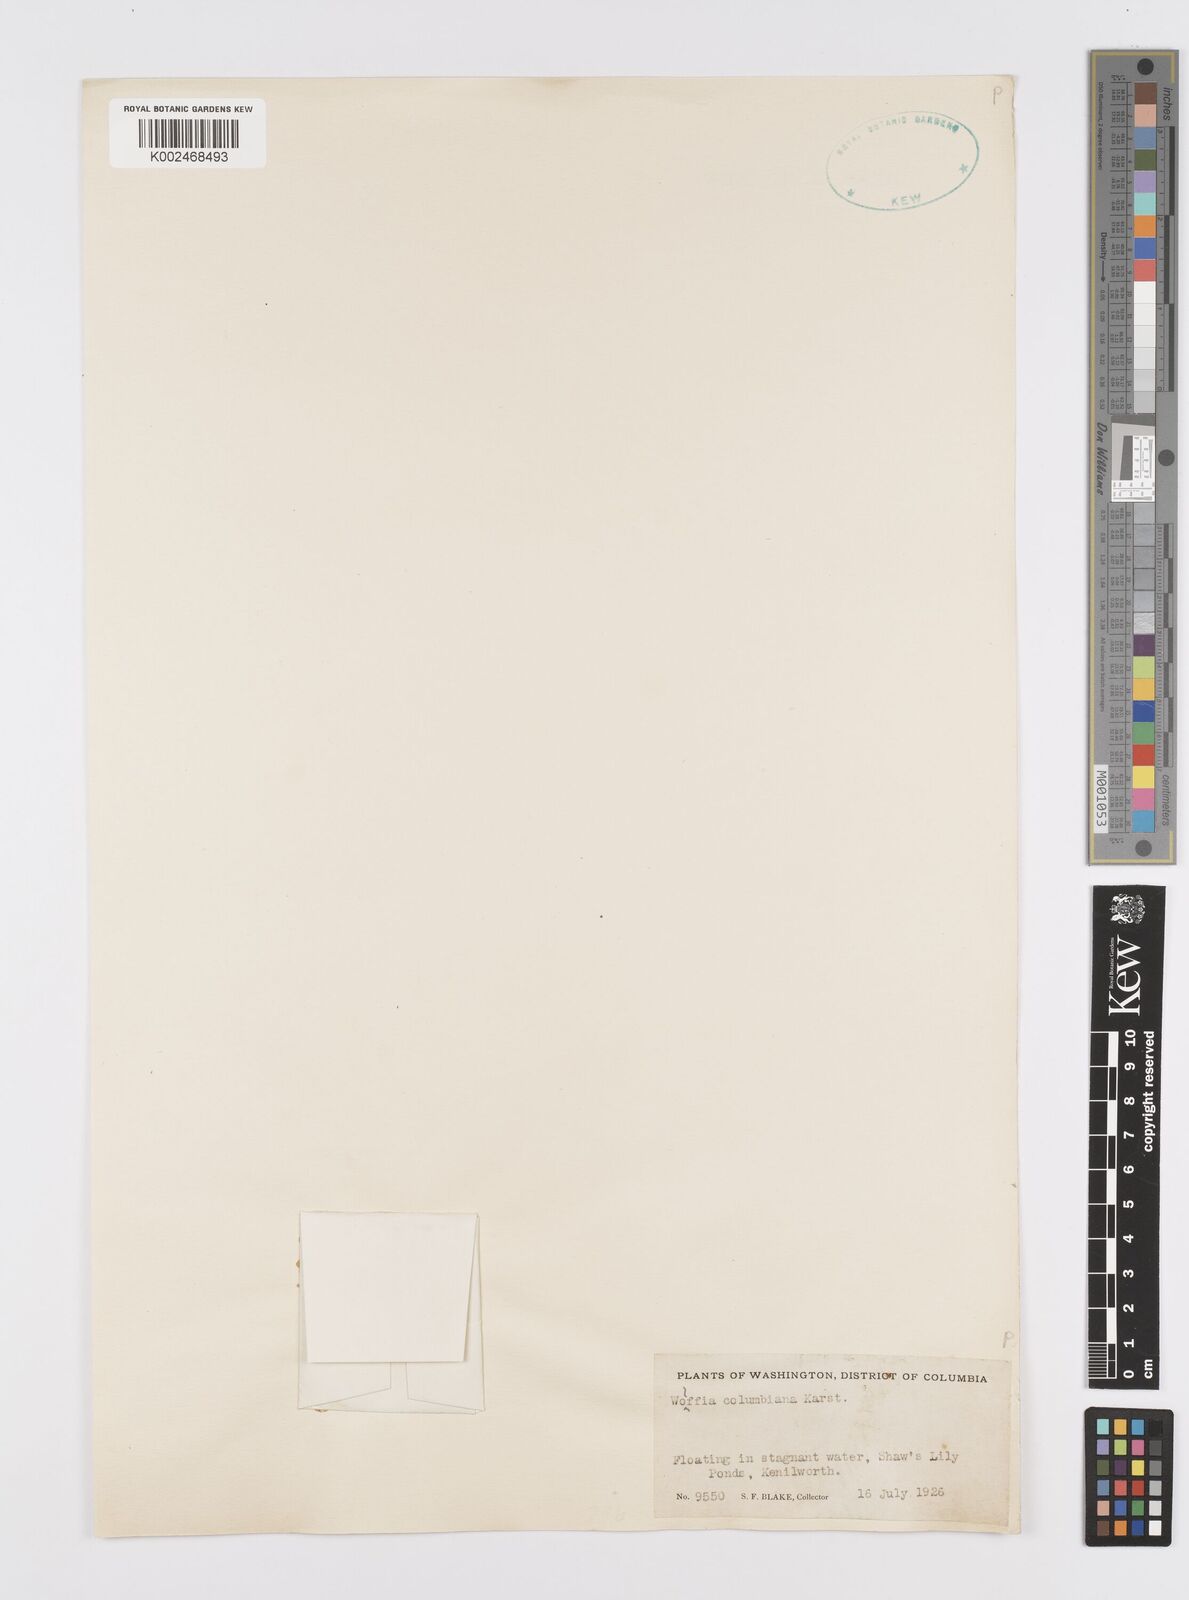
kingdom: Plantae
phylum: Tracheophyta
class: Liliopsida
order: Alismatales
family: Araceae
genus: Wolffia
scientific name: Wolffia columbiana
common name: Columbia watermeal
